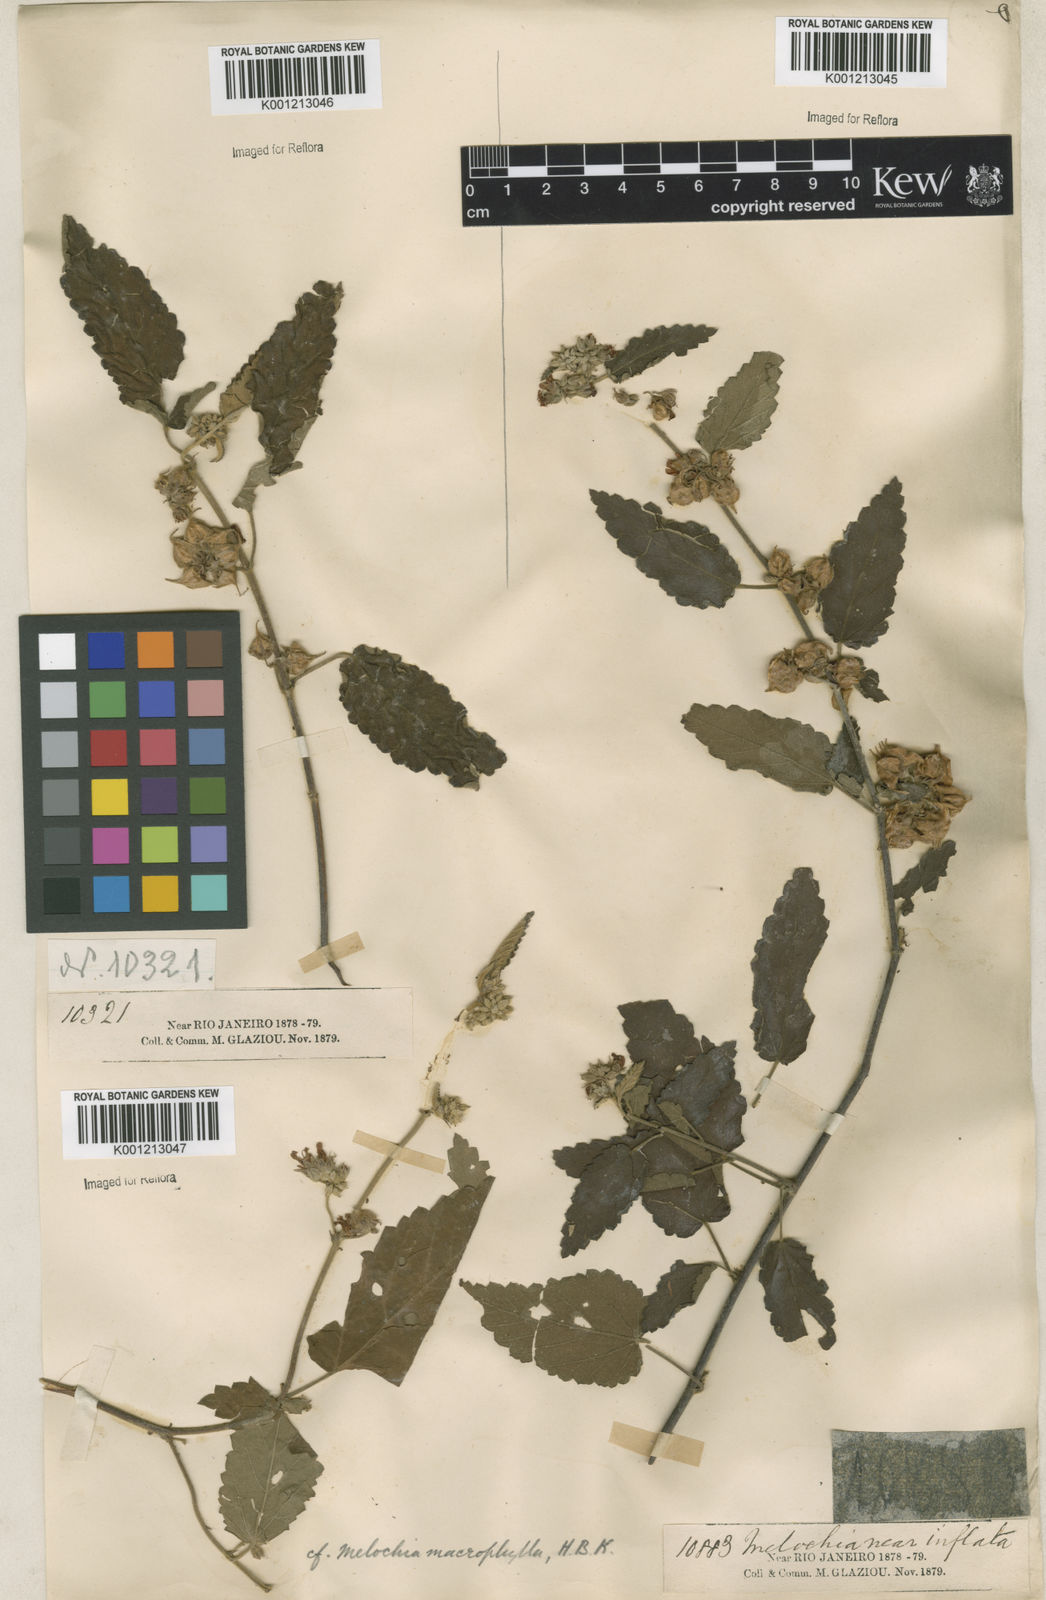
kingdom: Plantae
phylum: Tracheophyta
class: Magnoliopsida
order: Malvales
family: Malvaceae
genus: Melochia
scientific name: Melochia
